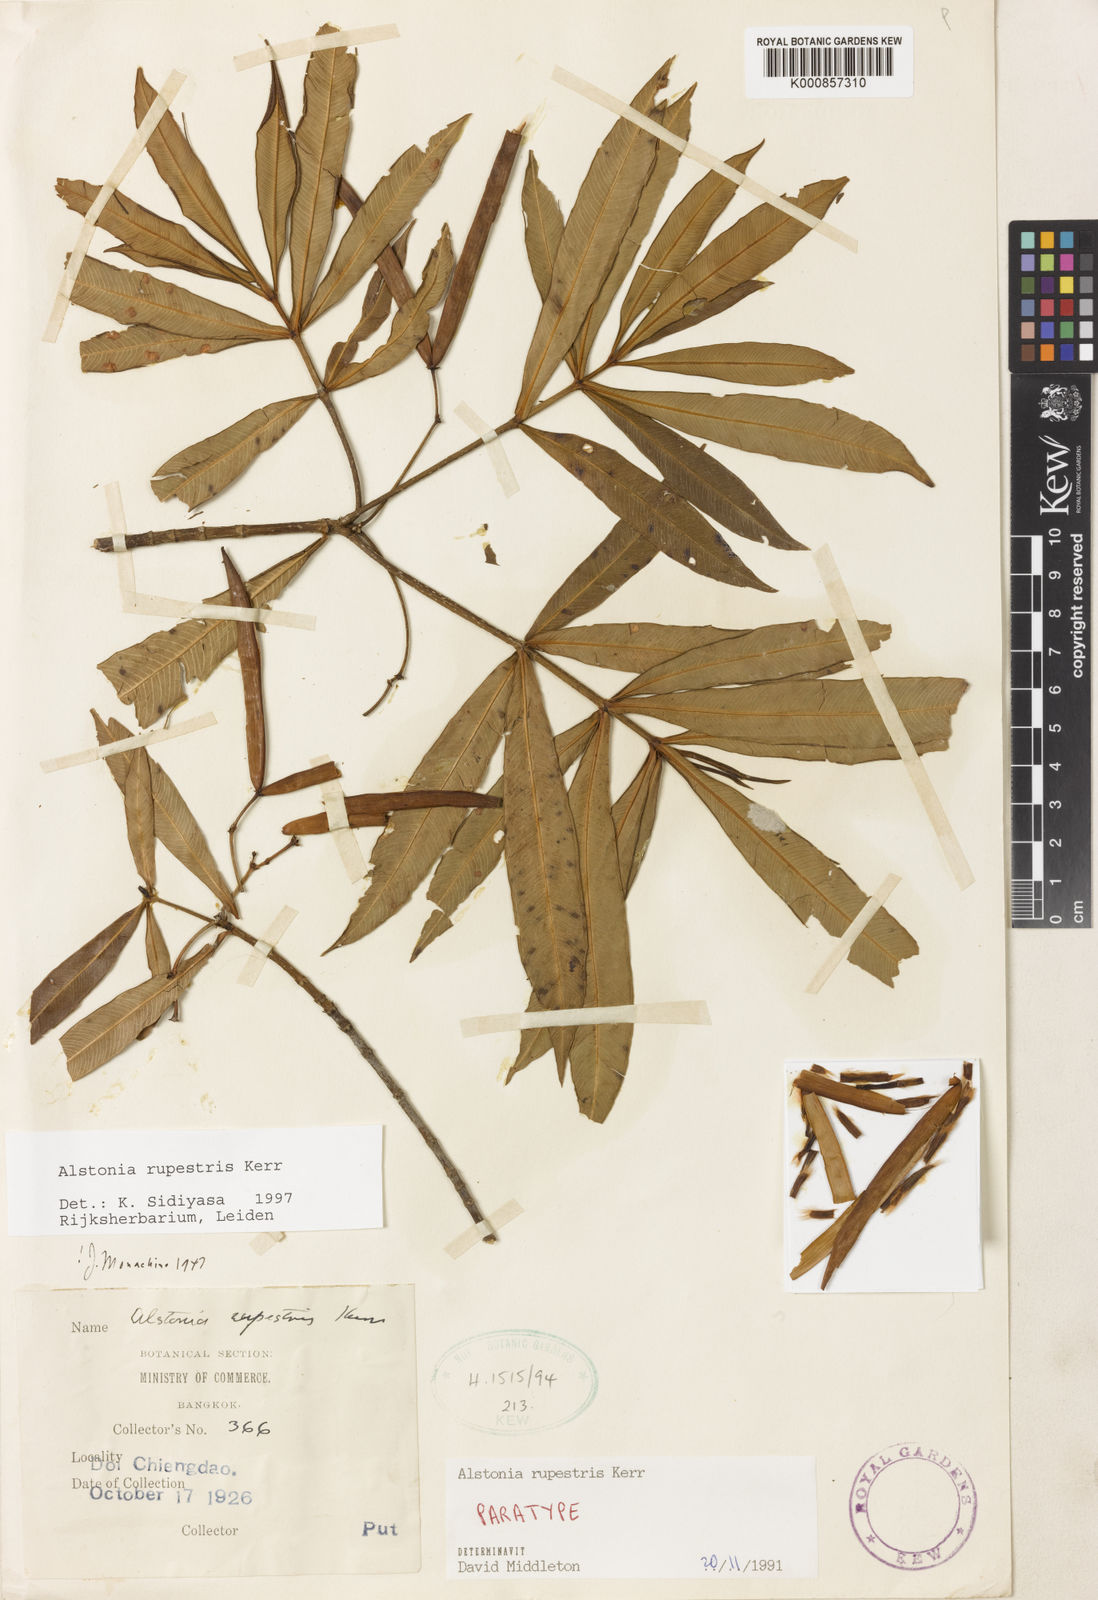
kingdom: Plantae
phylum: Tracheophyta
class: Magnoliopsida
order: Gentianales
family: Apocynaceae
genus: Alstonia
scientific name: Alstonia rupestris
